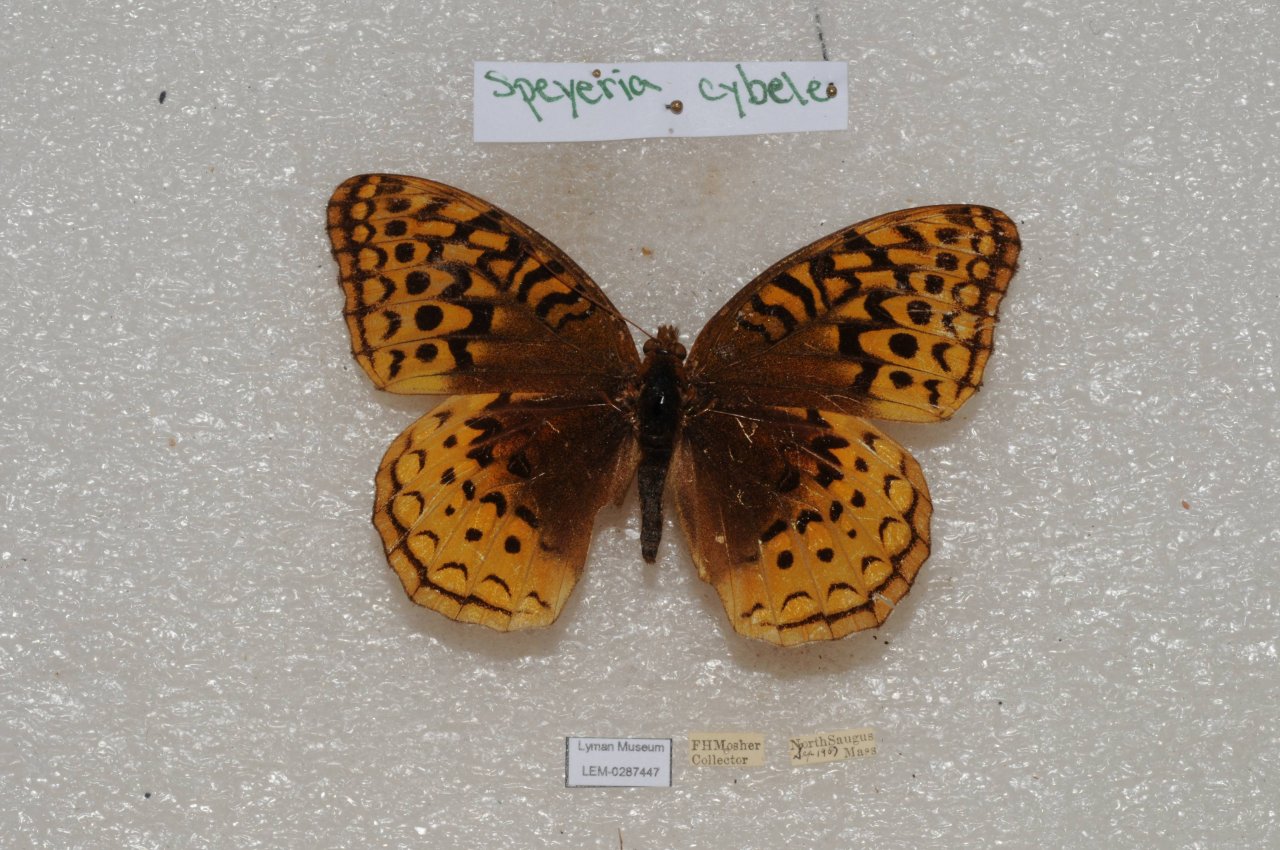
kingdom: Animalia
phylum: Arthropoda
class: Insecta
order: Lepidoptera
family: Nymphalidae
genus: Speyeria
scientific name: Speyeria cybele
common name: Great Spangled Fritillary
